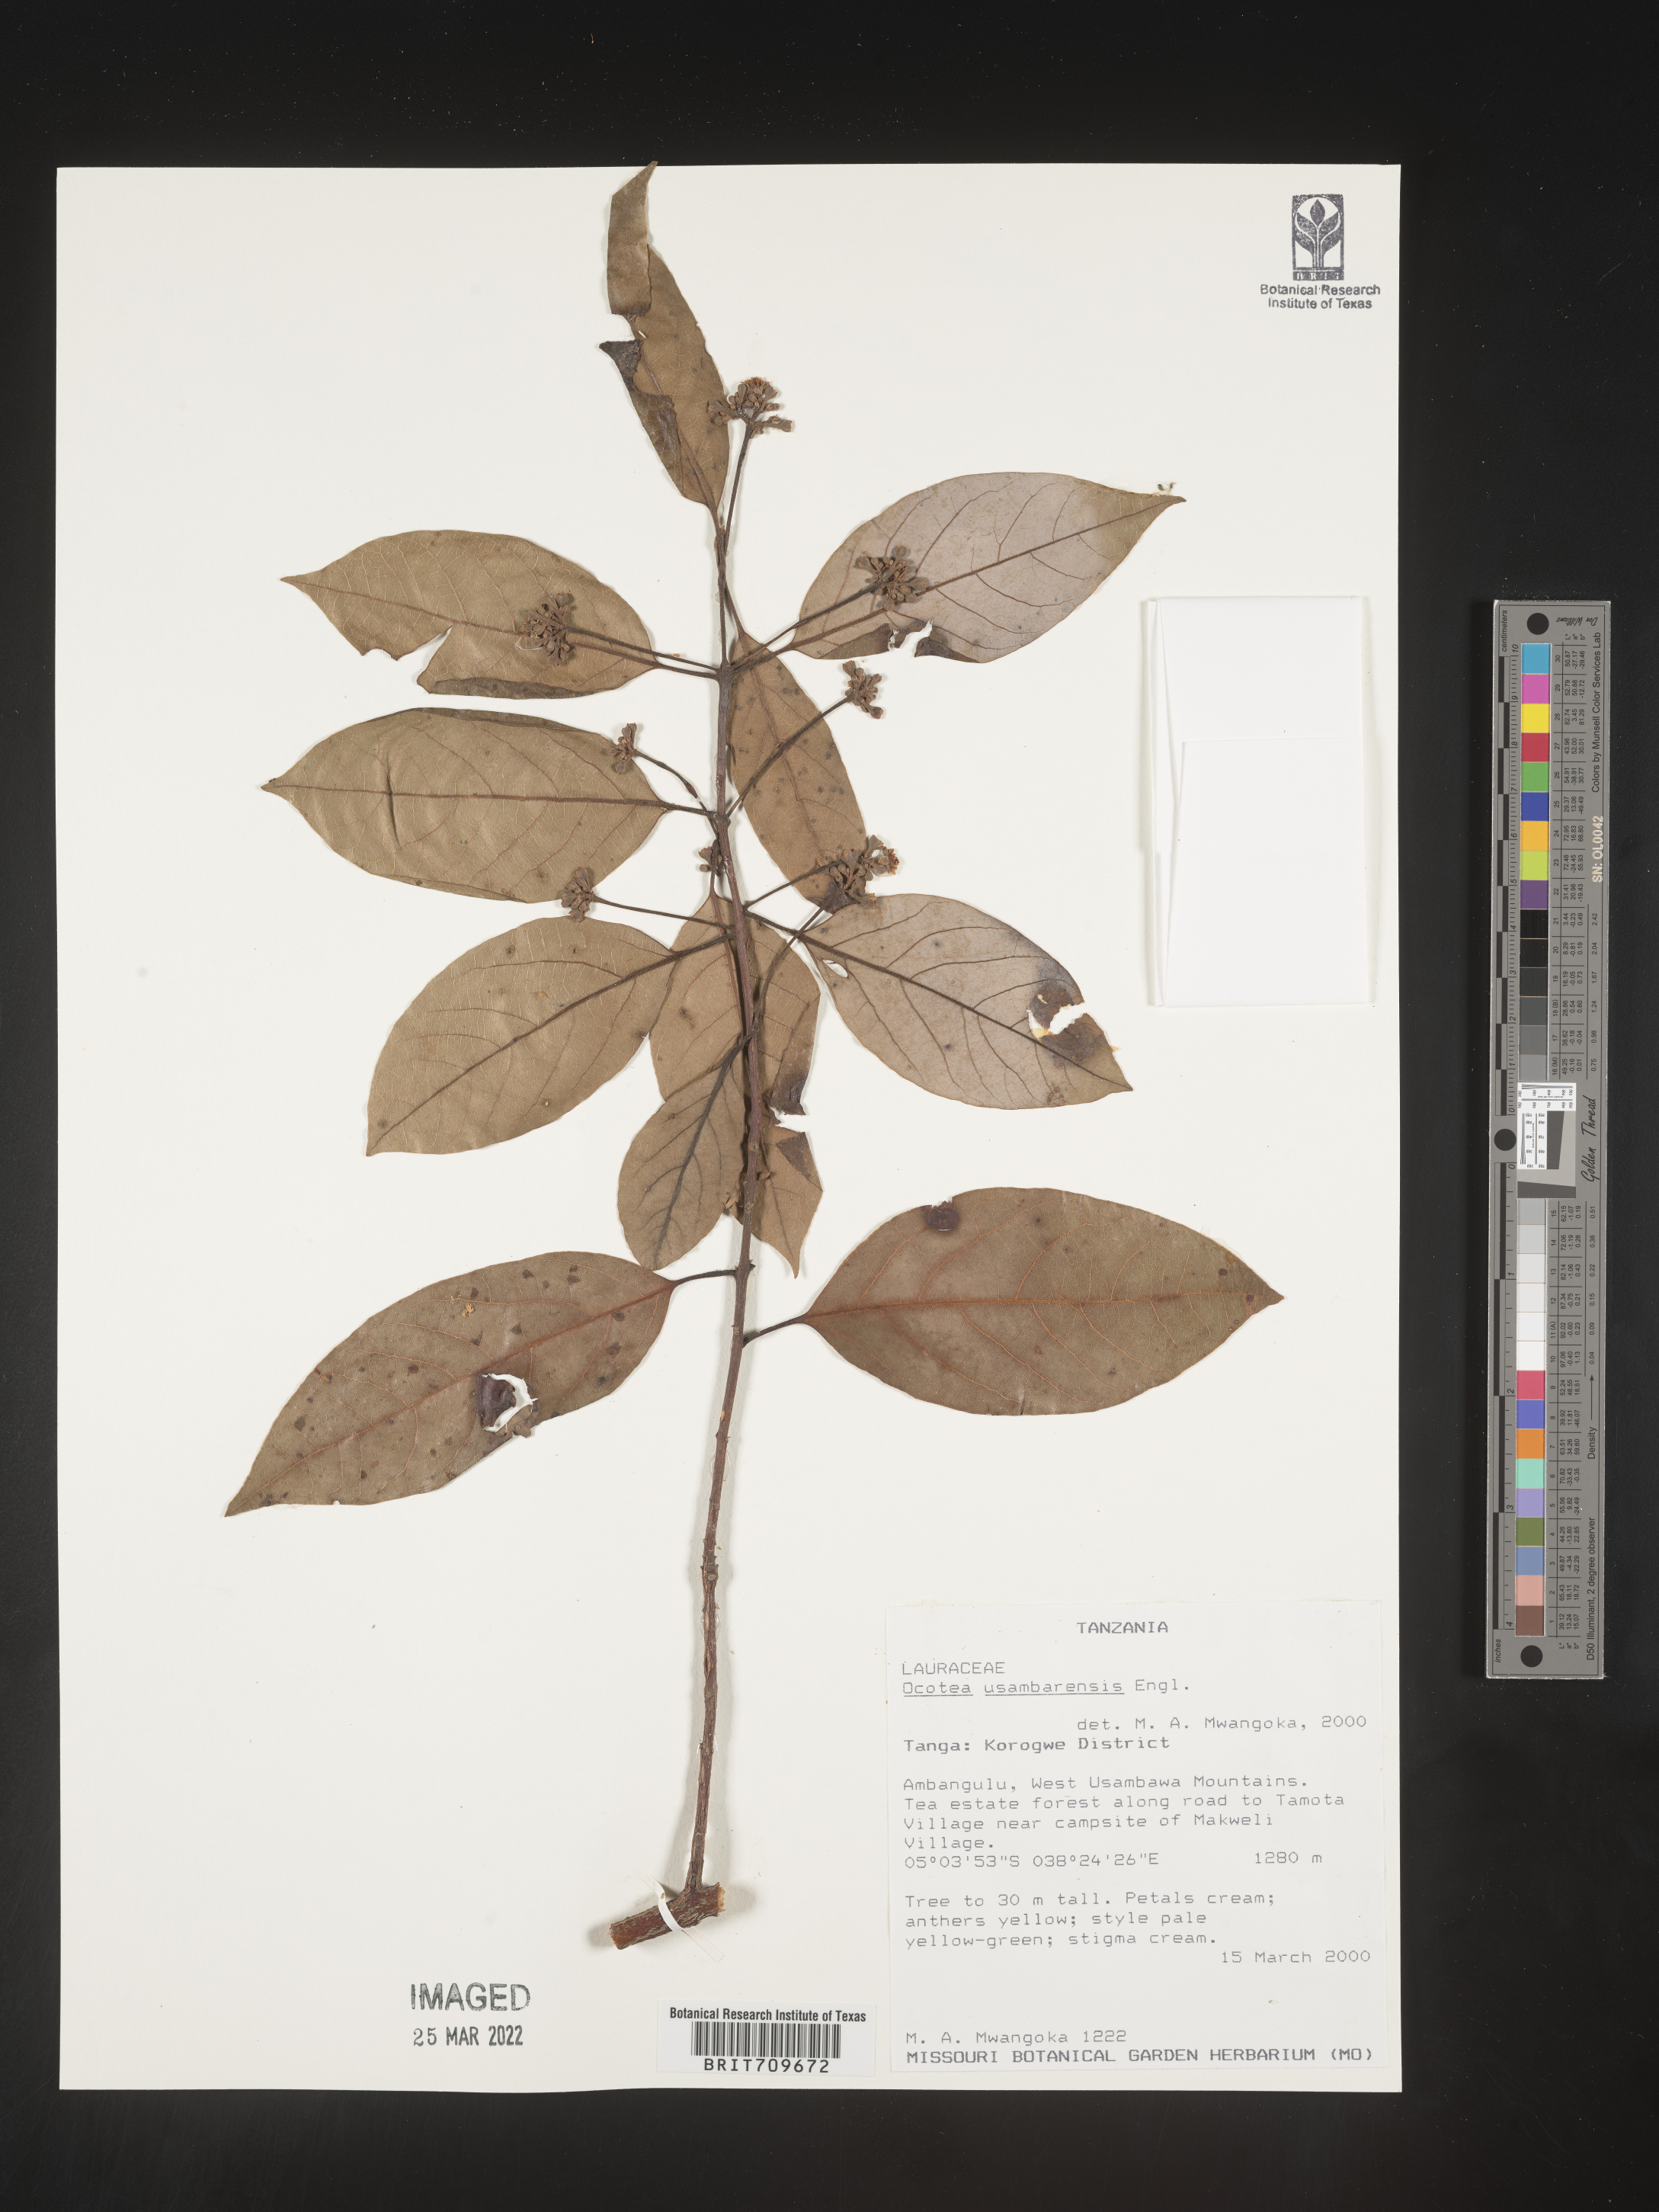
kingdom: Plantae
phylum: Tracheophyta
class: Magnoliopsida
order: Laurales
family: Lauraceae
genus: Ocotea
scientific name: Ocotea
